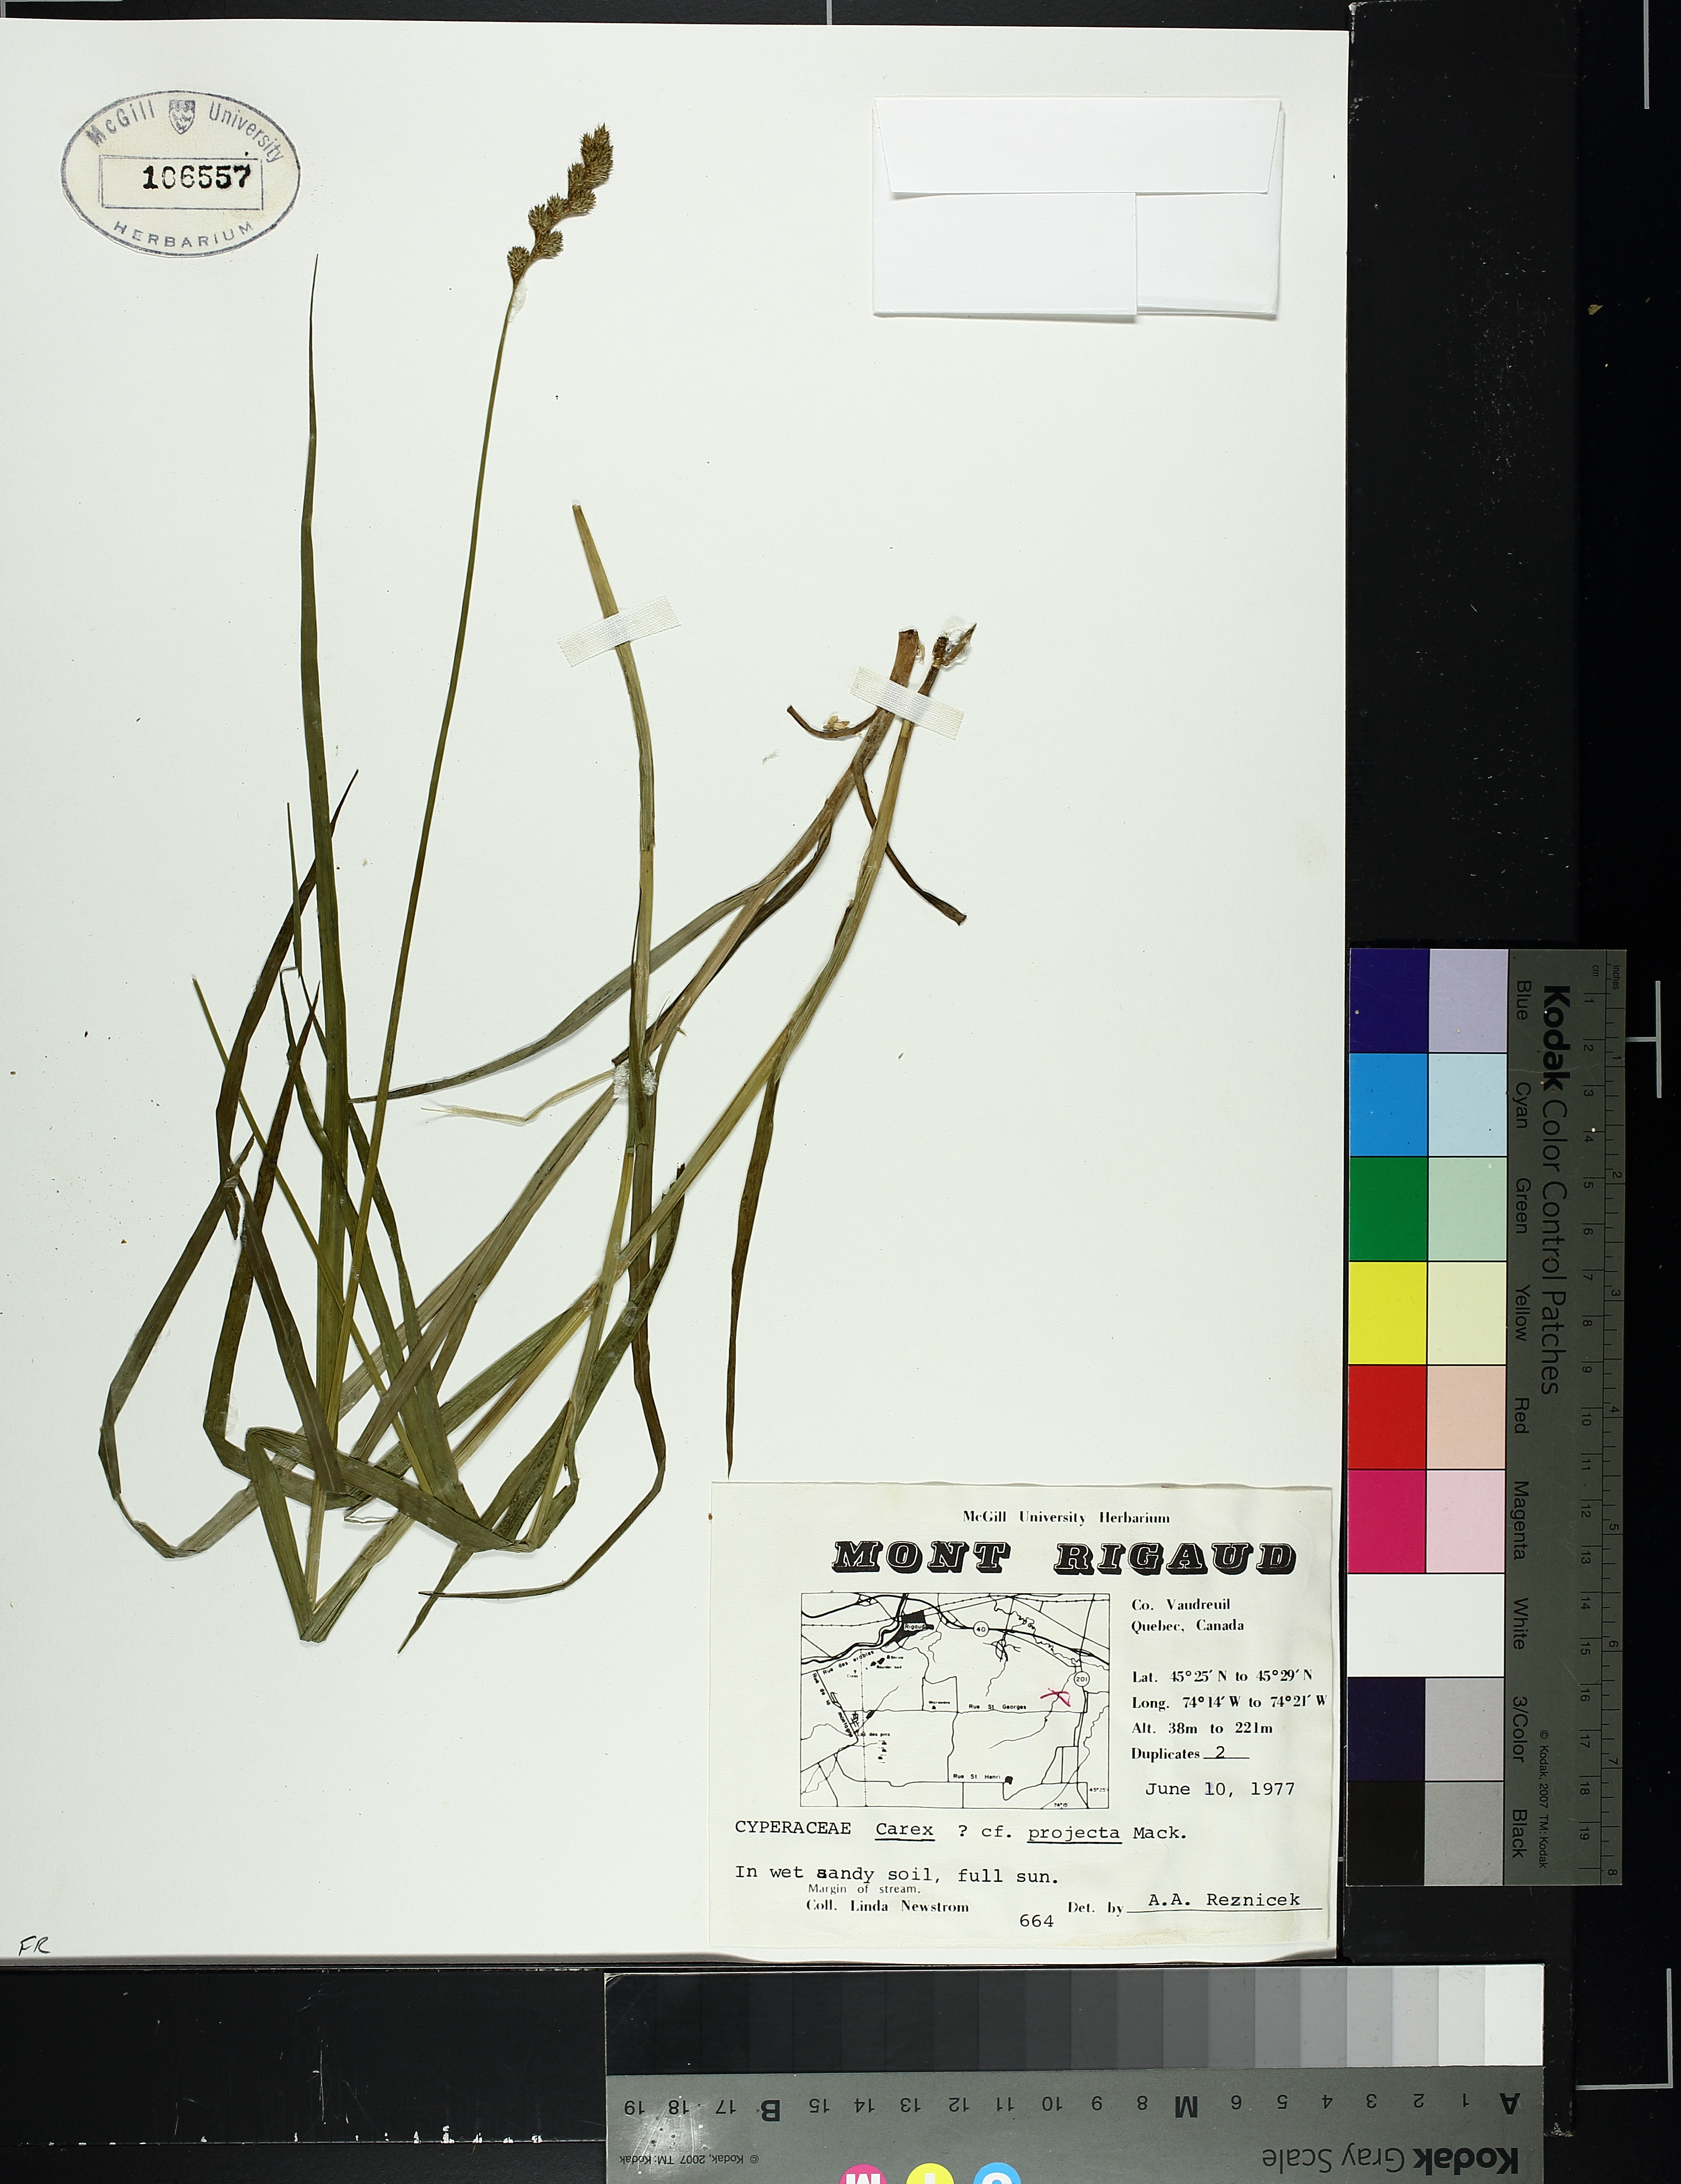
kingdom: Plantae
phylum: Tracheophyta
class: Liliopsida
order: Poales
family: Cyperaceae
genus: Carex
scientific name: Carex projecta
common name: Loose-headed oval sedge
